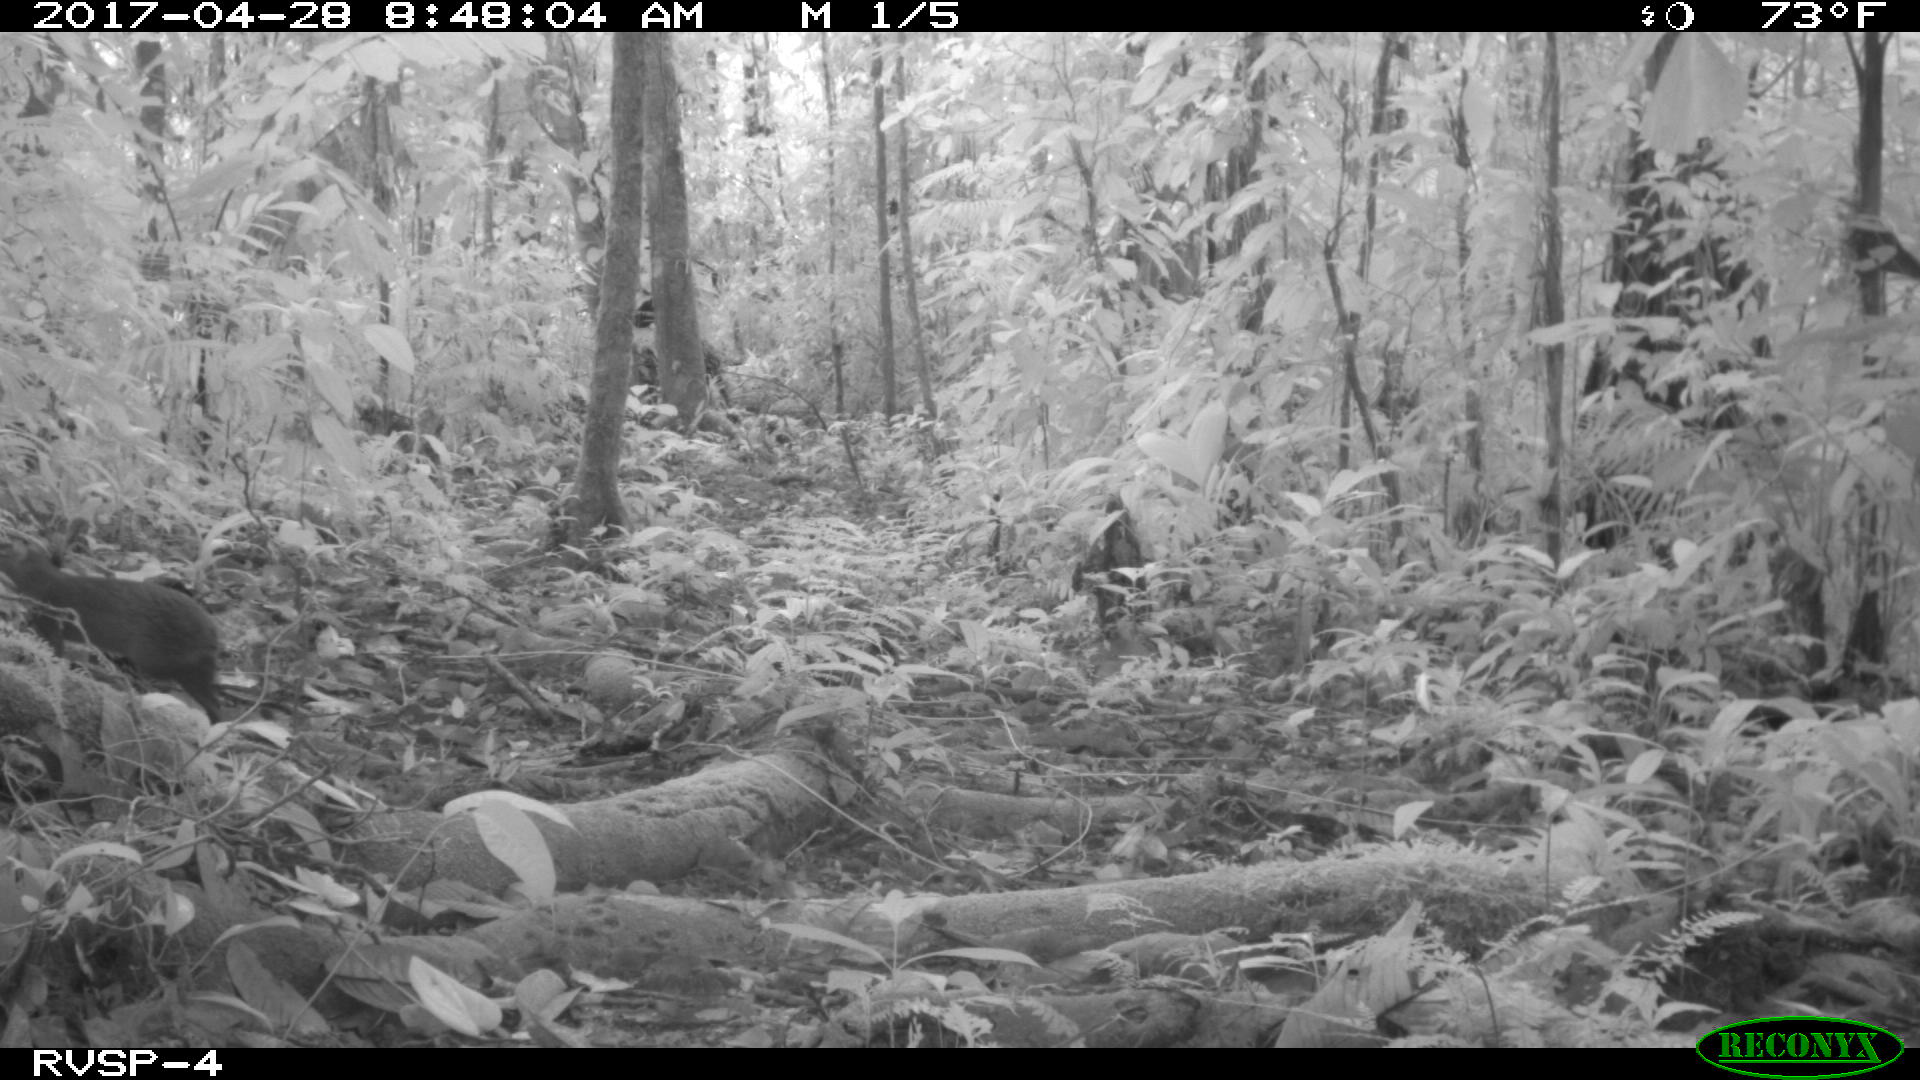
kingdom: Animalia
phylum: Chordata
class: Mammalia
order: Rodentia
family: Dasyproctidae
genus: Dasyprocta
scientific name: Dasyprocta punctata
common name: Central american agouti
